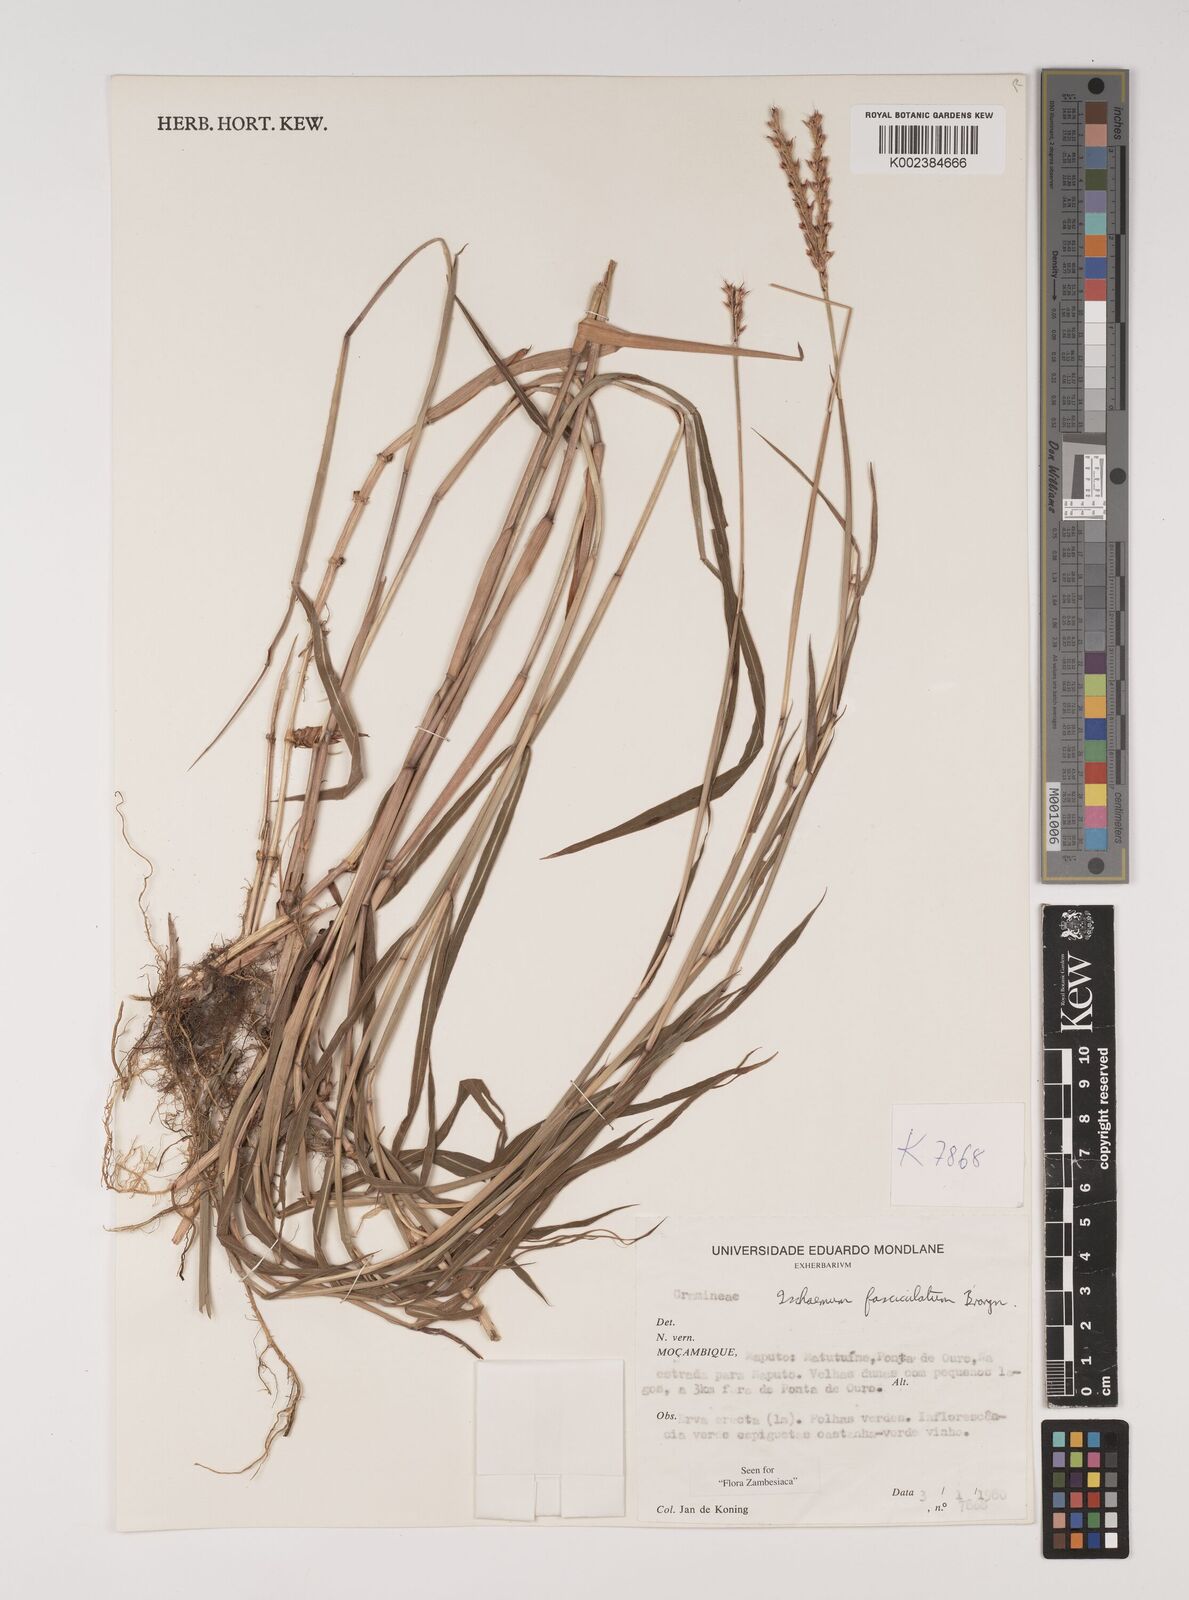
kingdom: Plantae
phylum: Tracheophyta
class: Liliopsida
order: Poales
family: Poaceae
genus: Ischaemum
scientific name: Ischaemum
